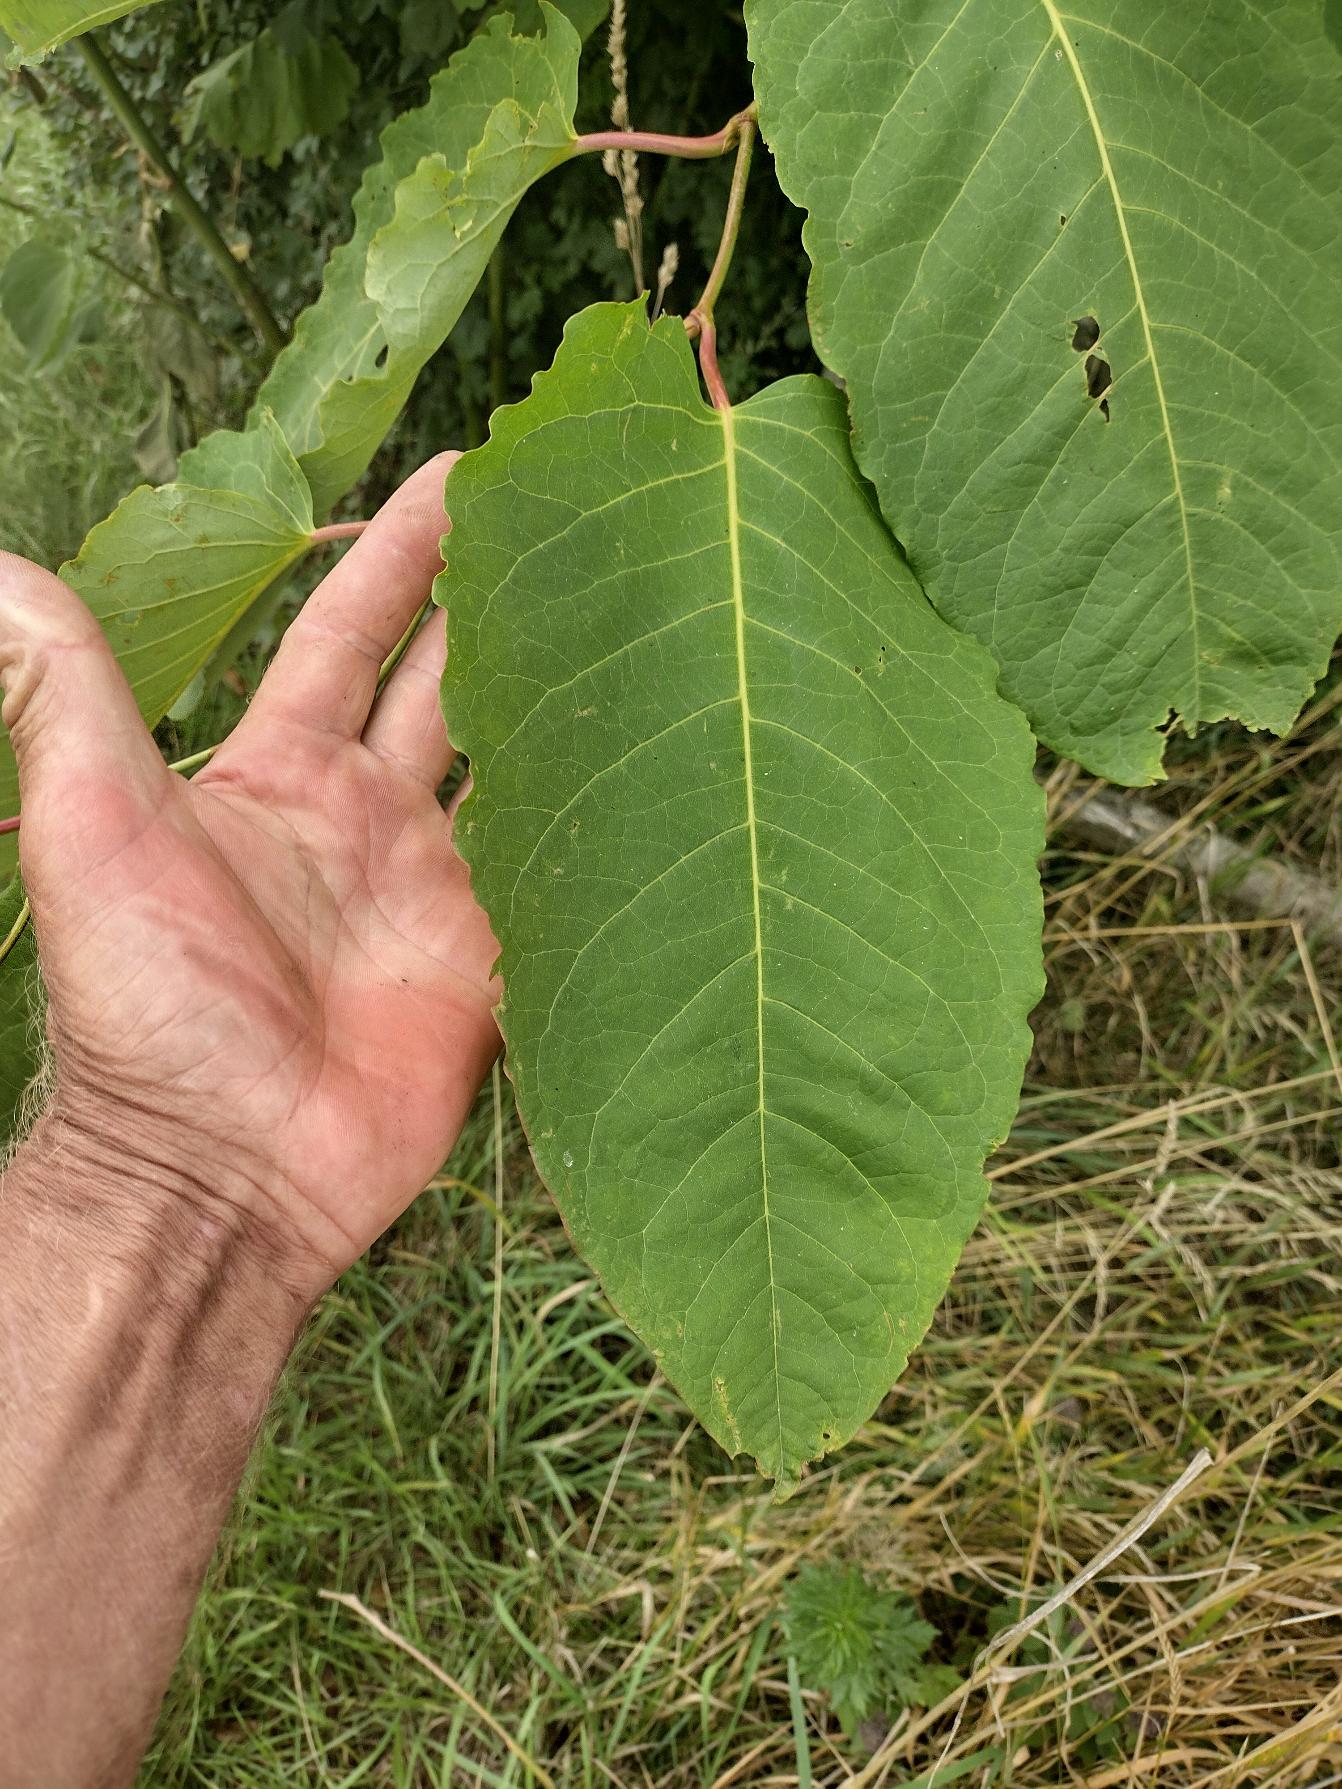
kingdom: Plantae
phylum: Tracheophyta
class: Magnoliopsida
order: Caryophyllales
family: Polygonaceae
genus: Reynoutria
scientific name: Reynoutria sachalinensis
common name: Kæmpe-pileurt
